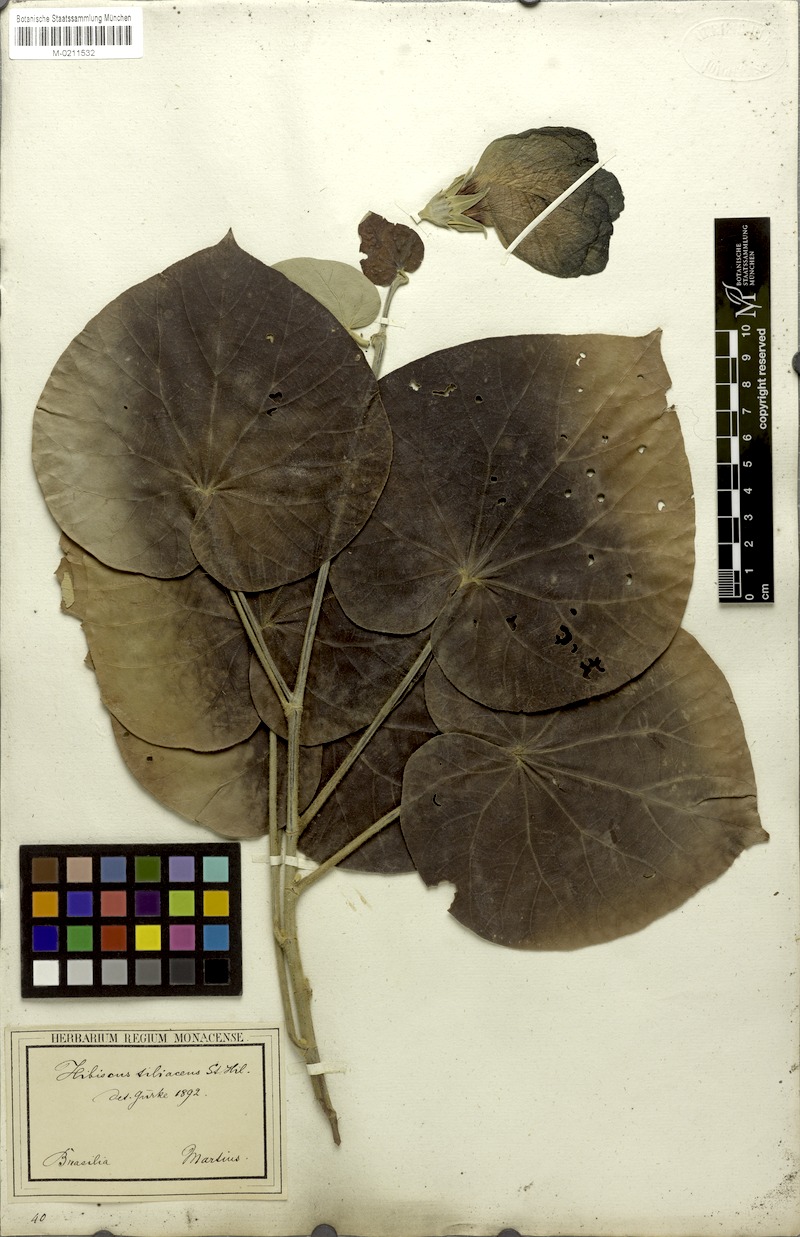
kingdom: Plantae
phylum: Tracheophyta
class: Magnoliopsida
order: Malvales
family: Malvaceae
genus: Talipariti
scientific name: Talipariti tiliaceum
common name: Sea hibiscus
